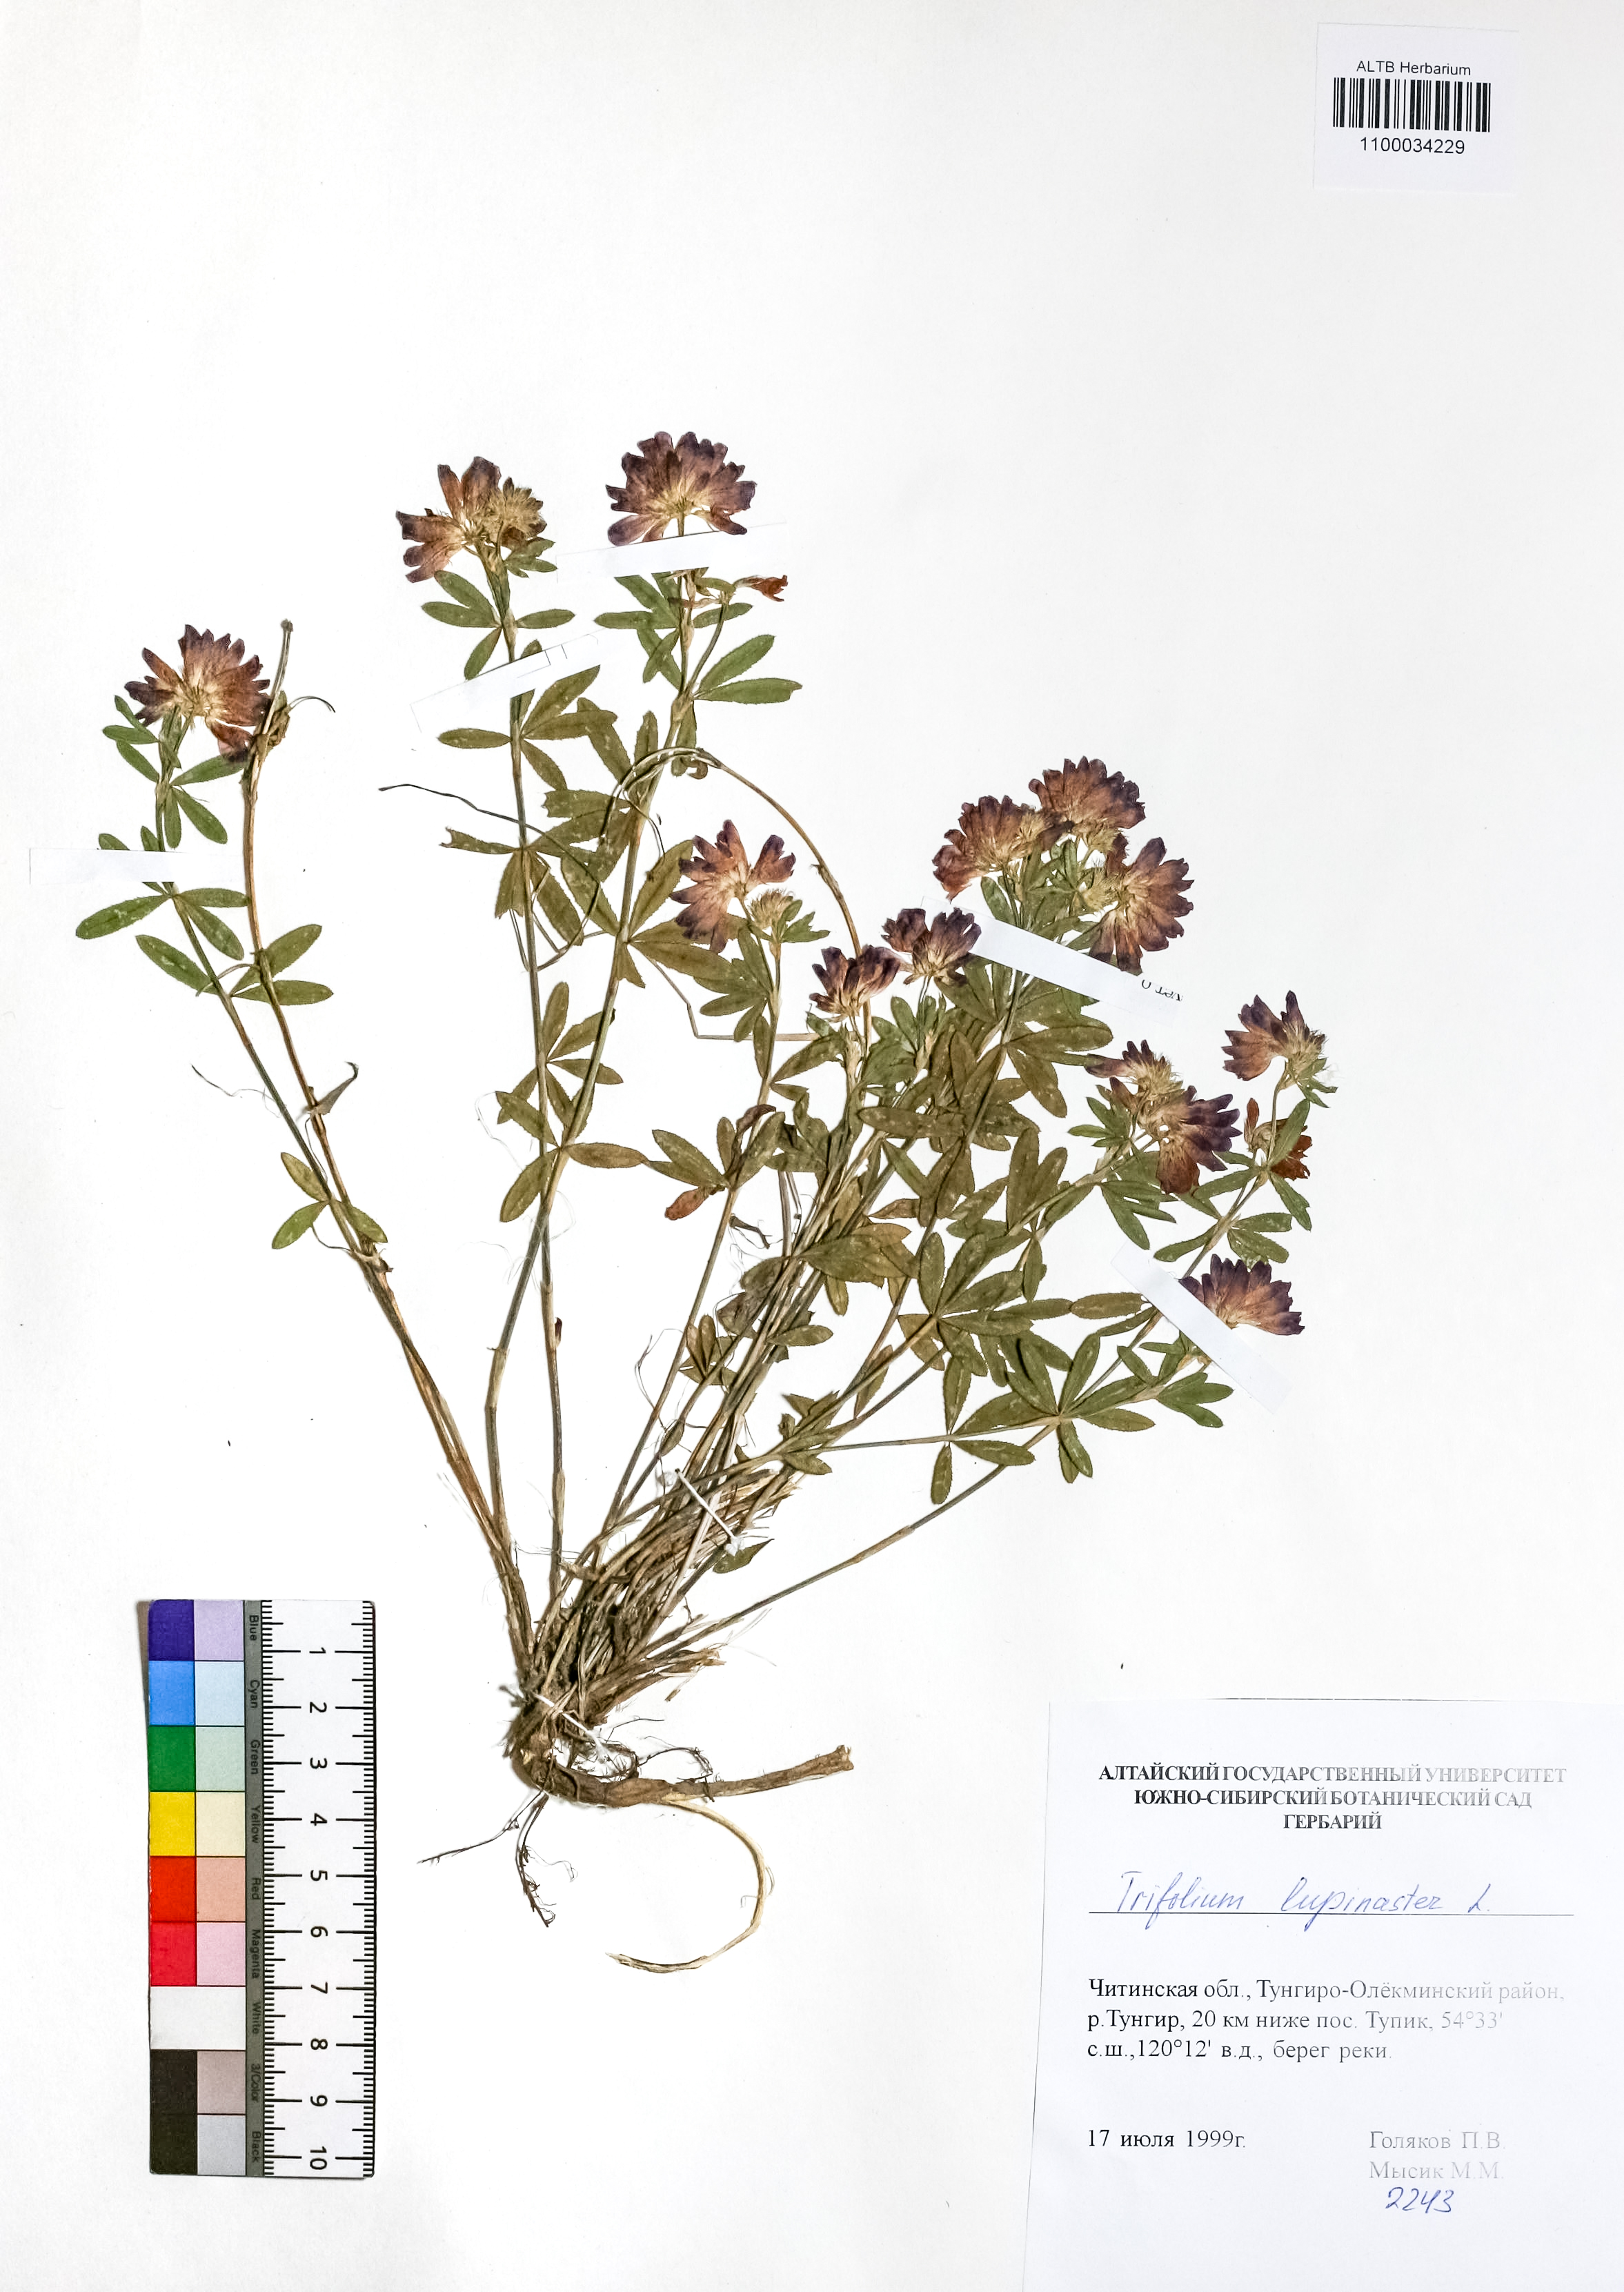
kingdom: Plantae
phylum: Tracheophyta
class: Magnoliopsida
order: Fabales
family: Fabaceae
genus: Trifolium
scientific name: Trifolium lupinaster
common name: Lupine clover
